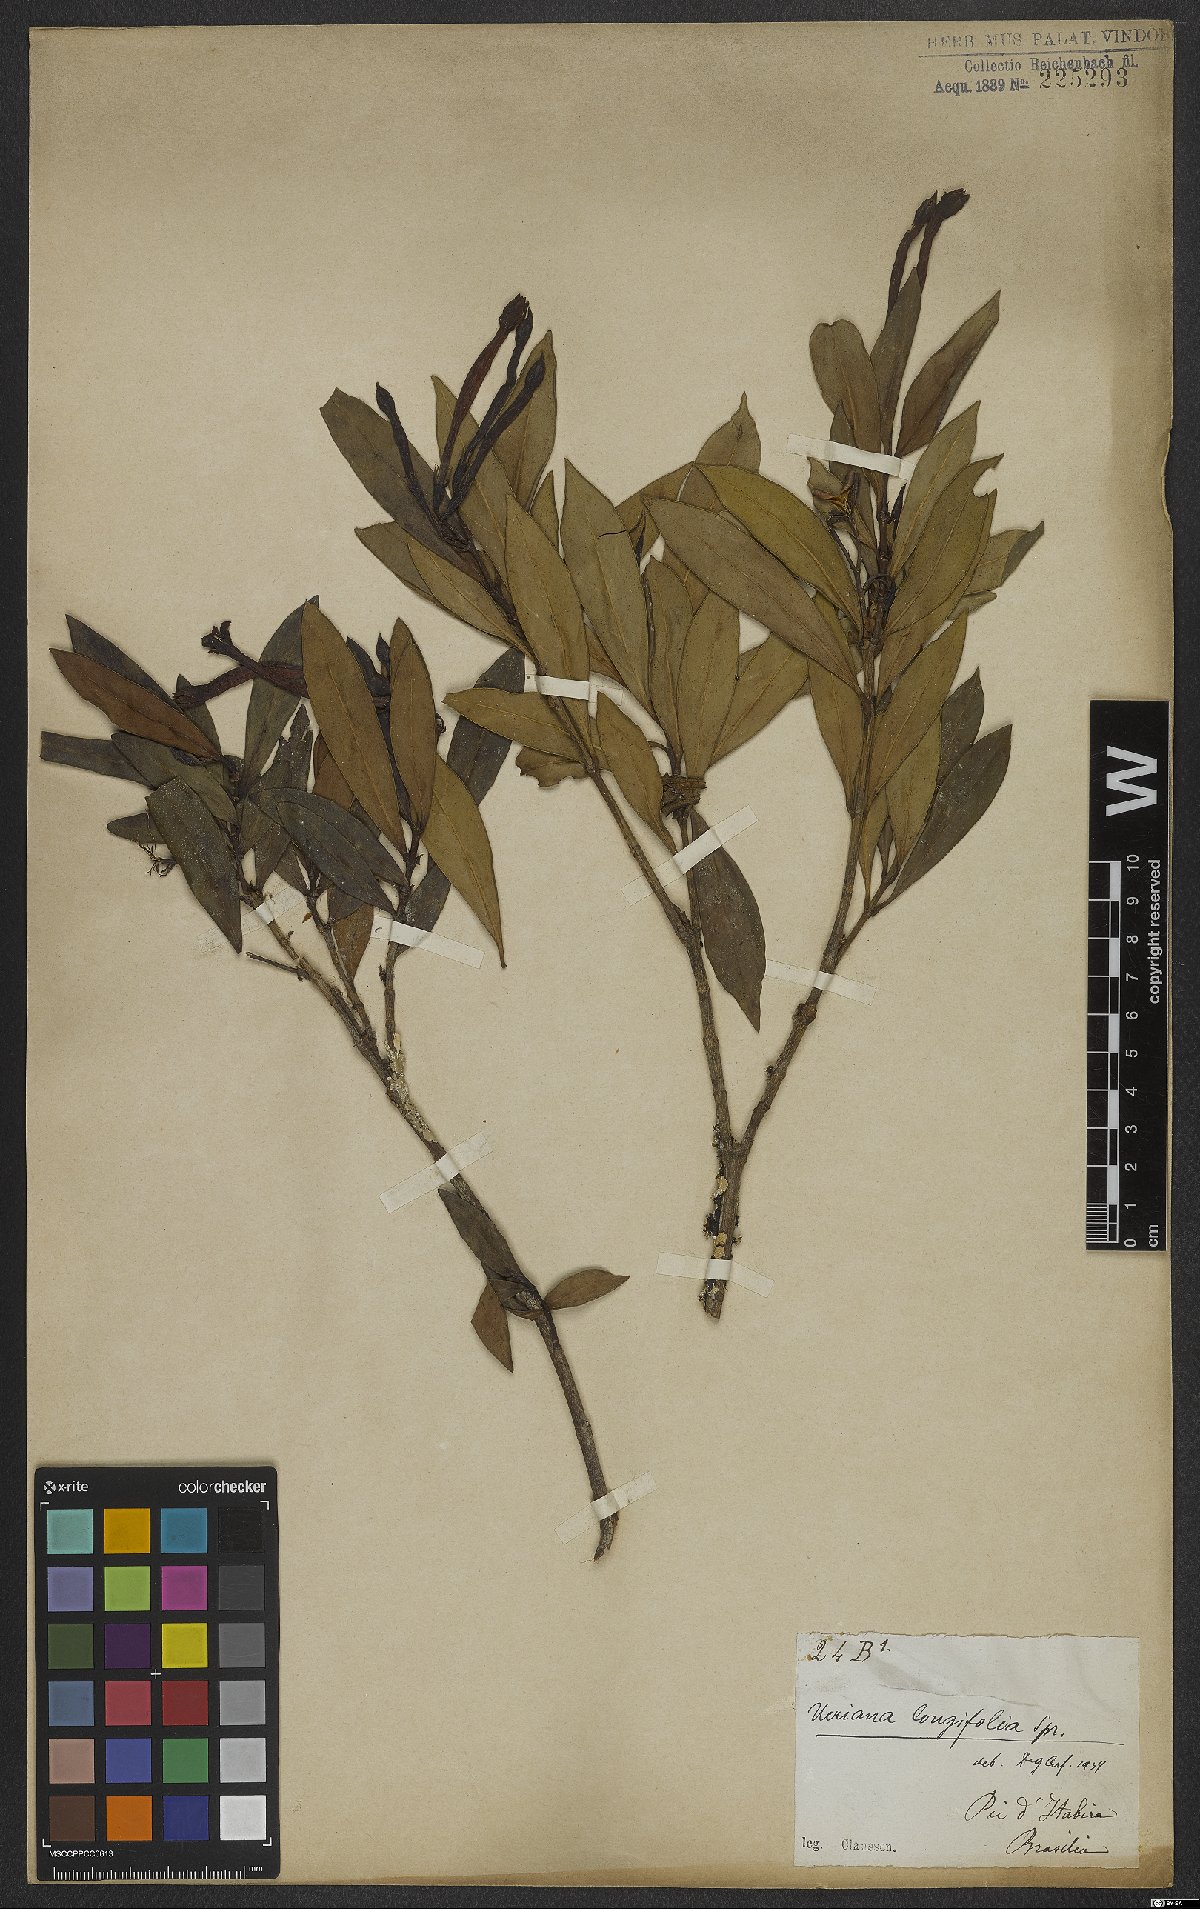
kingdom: Plantae
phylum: Tracheophyta
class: Magnoliopsida
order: Gentianales
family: Rubiaceae
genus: Augusta
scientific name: Augusta longifolia
